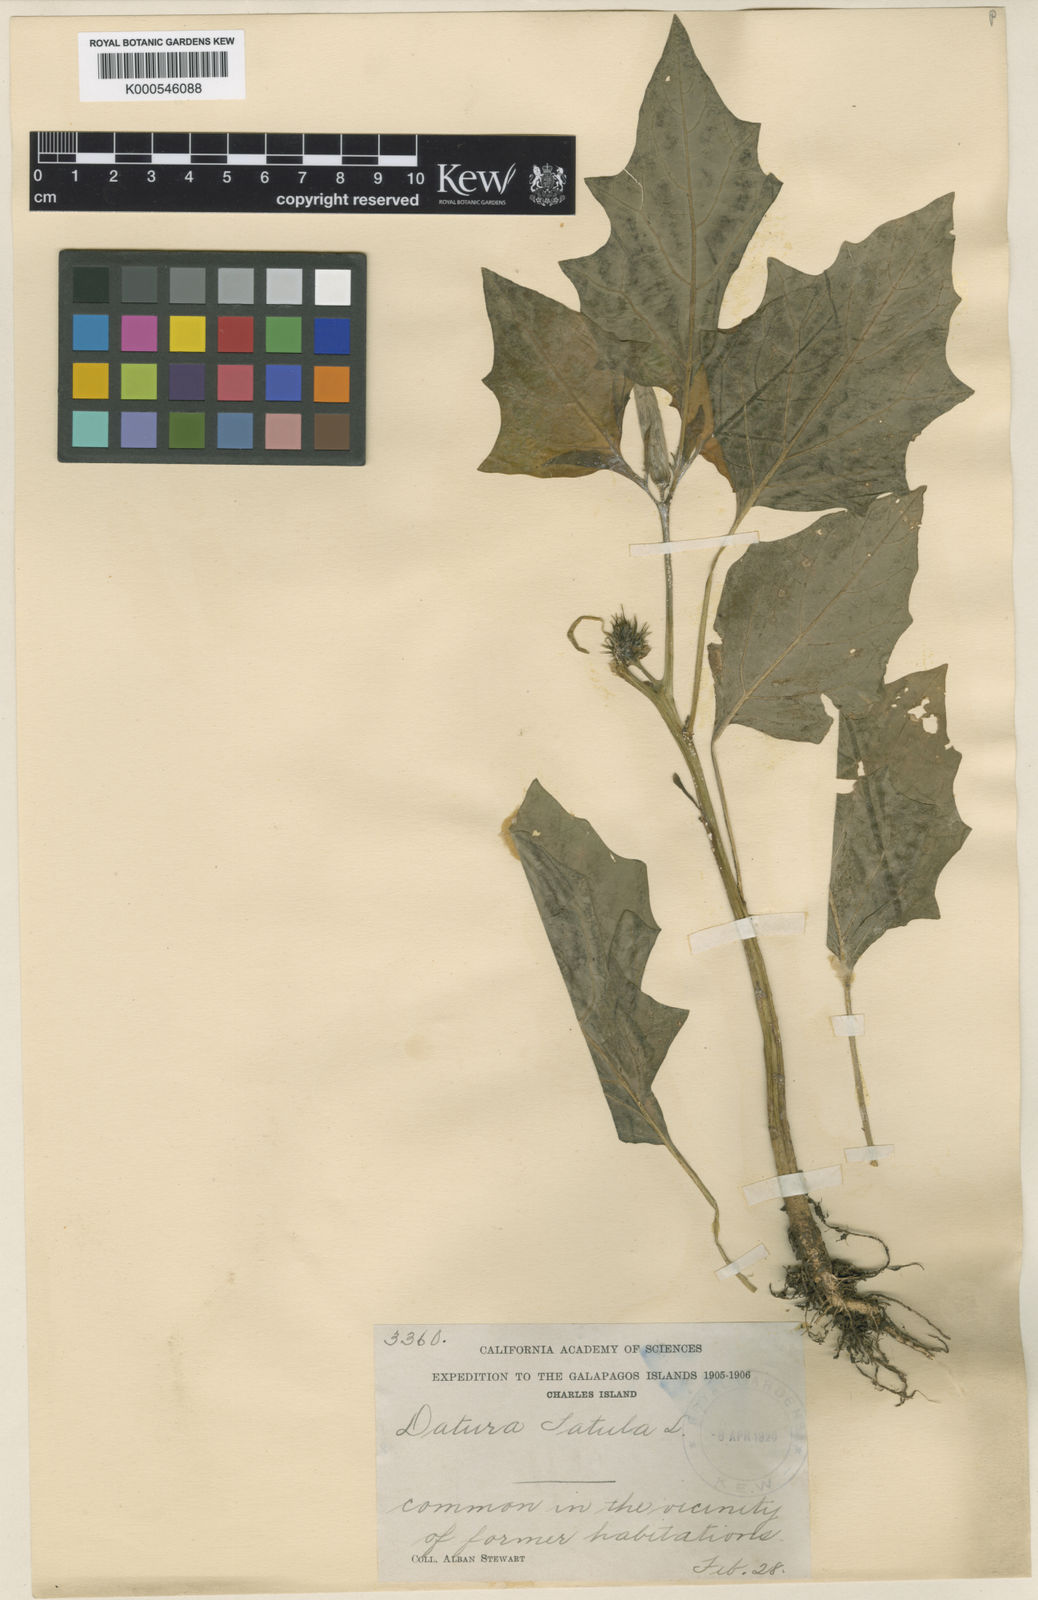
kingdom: Plantae
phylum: Tracheophyta
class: Magnoliopsida
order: Solanales
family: Solanaceae
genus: Datura
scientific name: Datura stramonium
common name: Thorn-apple
